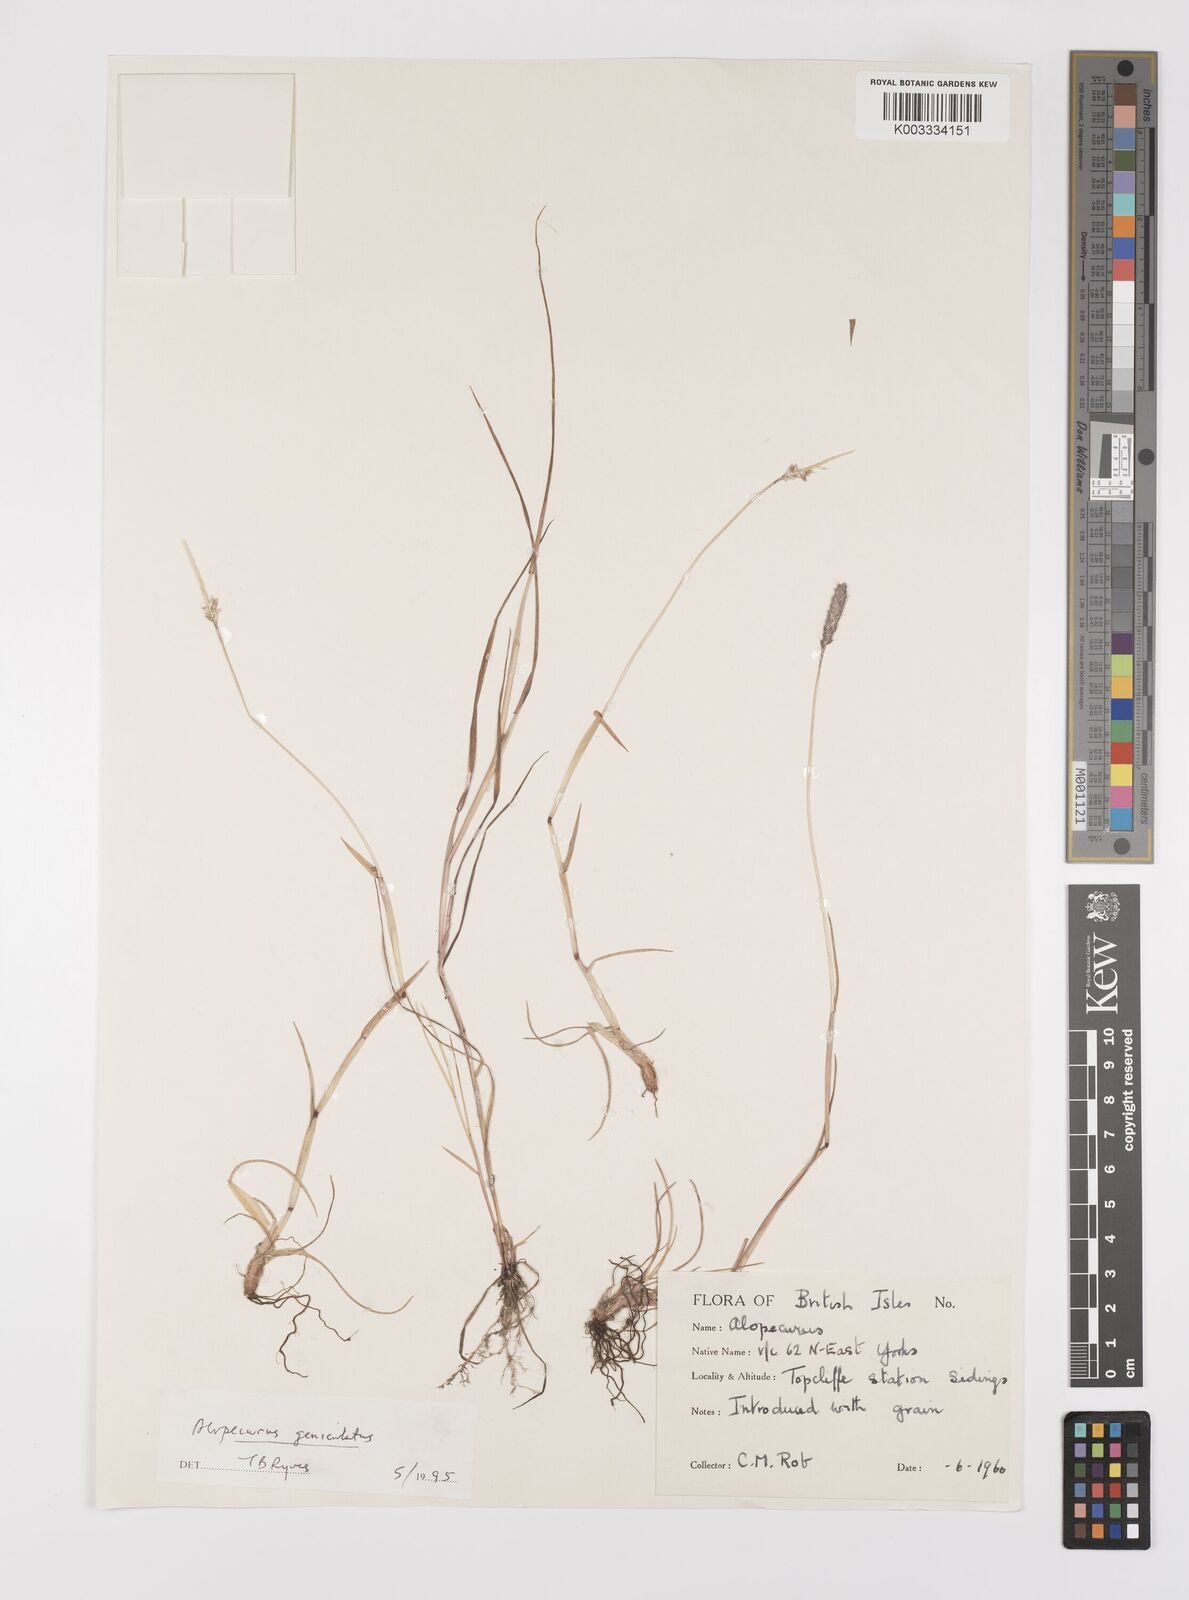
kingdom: Plantae
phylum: Tracheophyta
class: Liliopsida
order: Poales
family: Poaceae
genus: Alopecurus
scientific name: Alopecurus geniculatus
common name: Water foxtail
